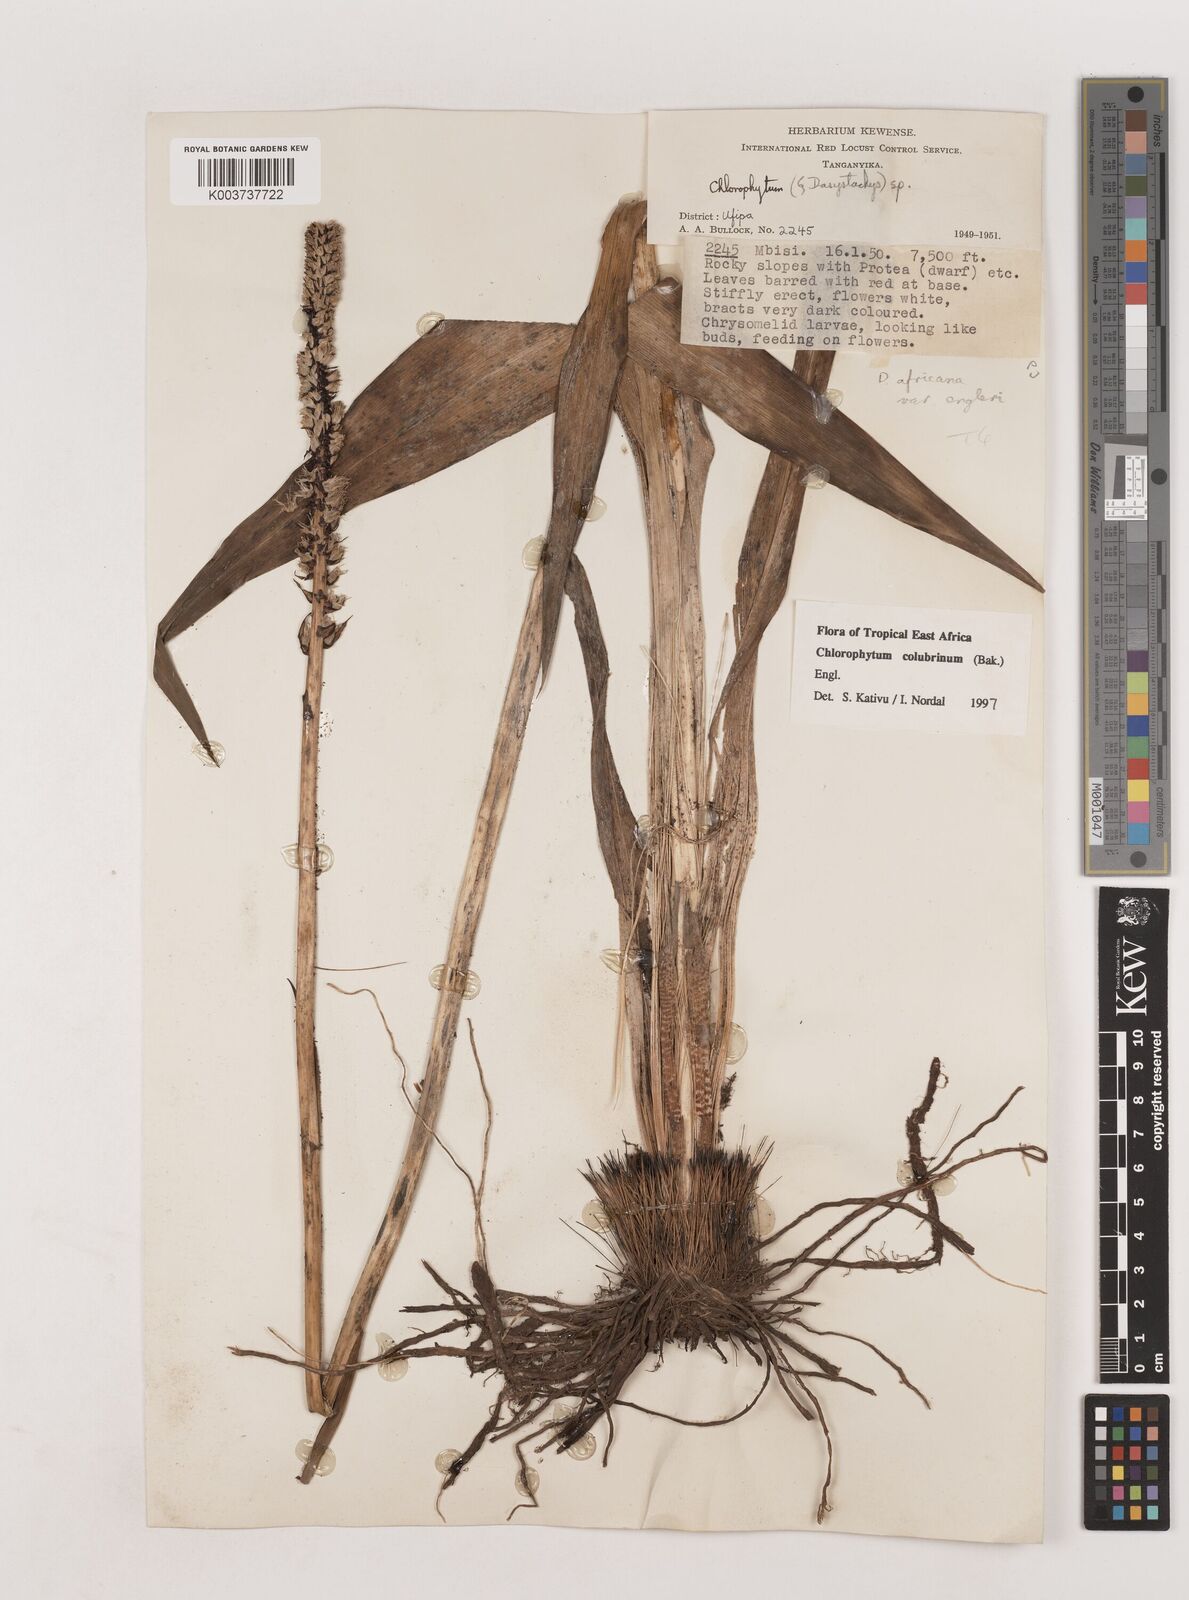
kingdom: Plantae
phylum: Tracheophyta
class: Liliopsida
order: Asparagales
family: Asparagaceae
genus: Chlorophytum
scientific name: Chlorophytum colubrinum
